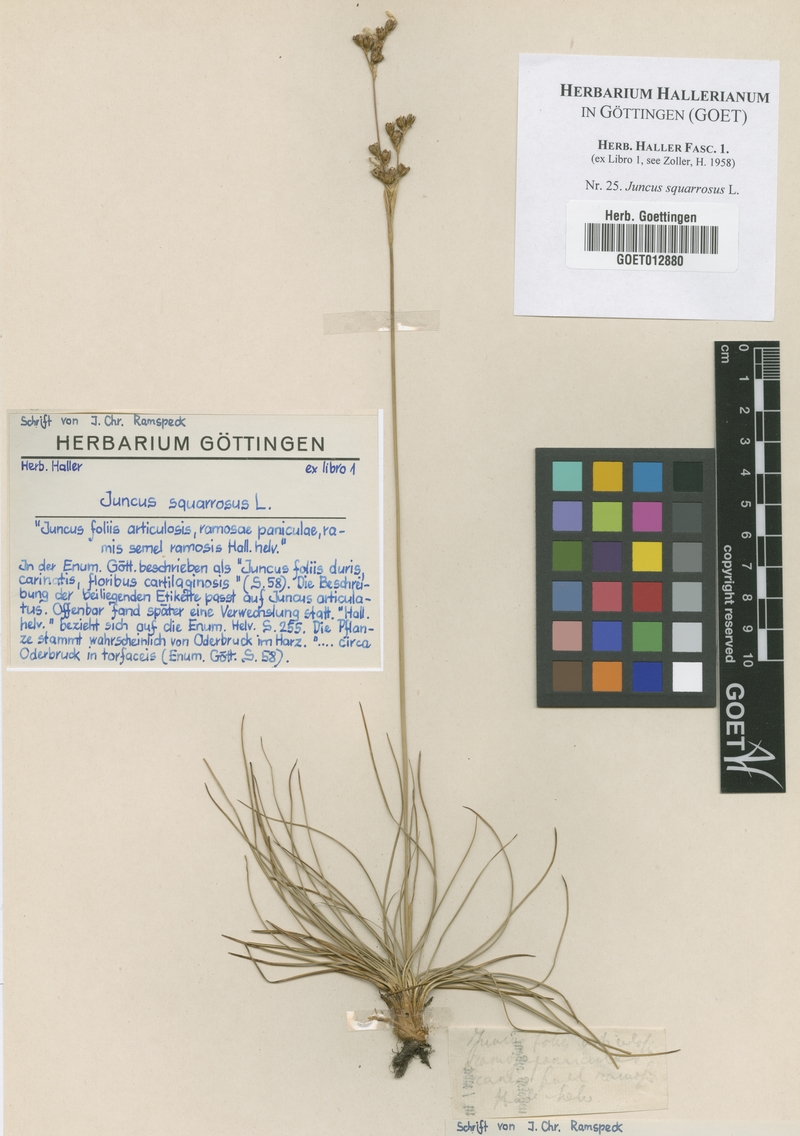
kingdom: Plantae
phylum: Tracheophyta
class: Liliopsida
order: Poales
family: Juncaceae
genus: Juncus
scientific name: Juncus squarrosus
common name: Heath rush
